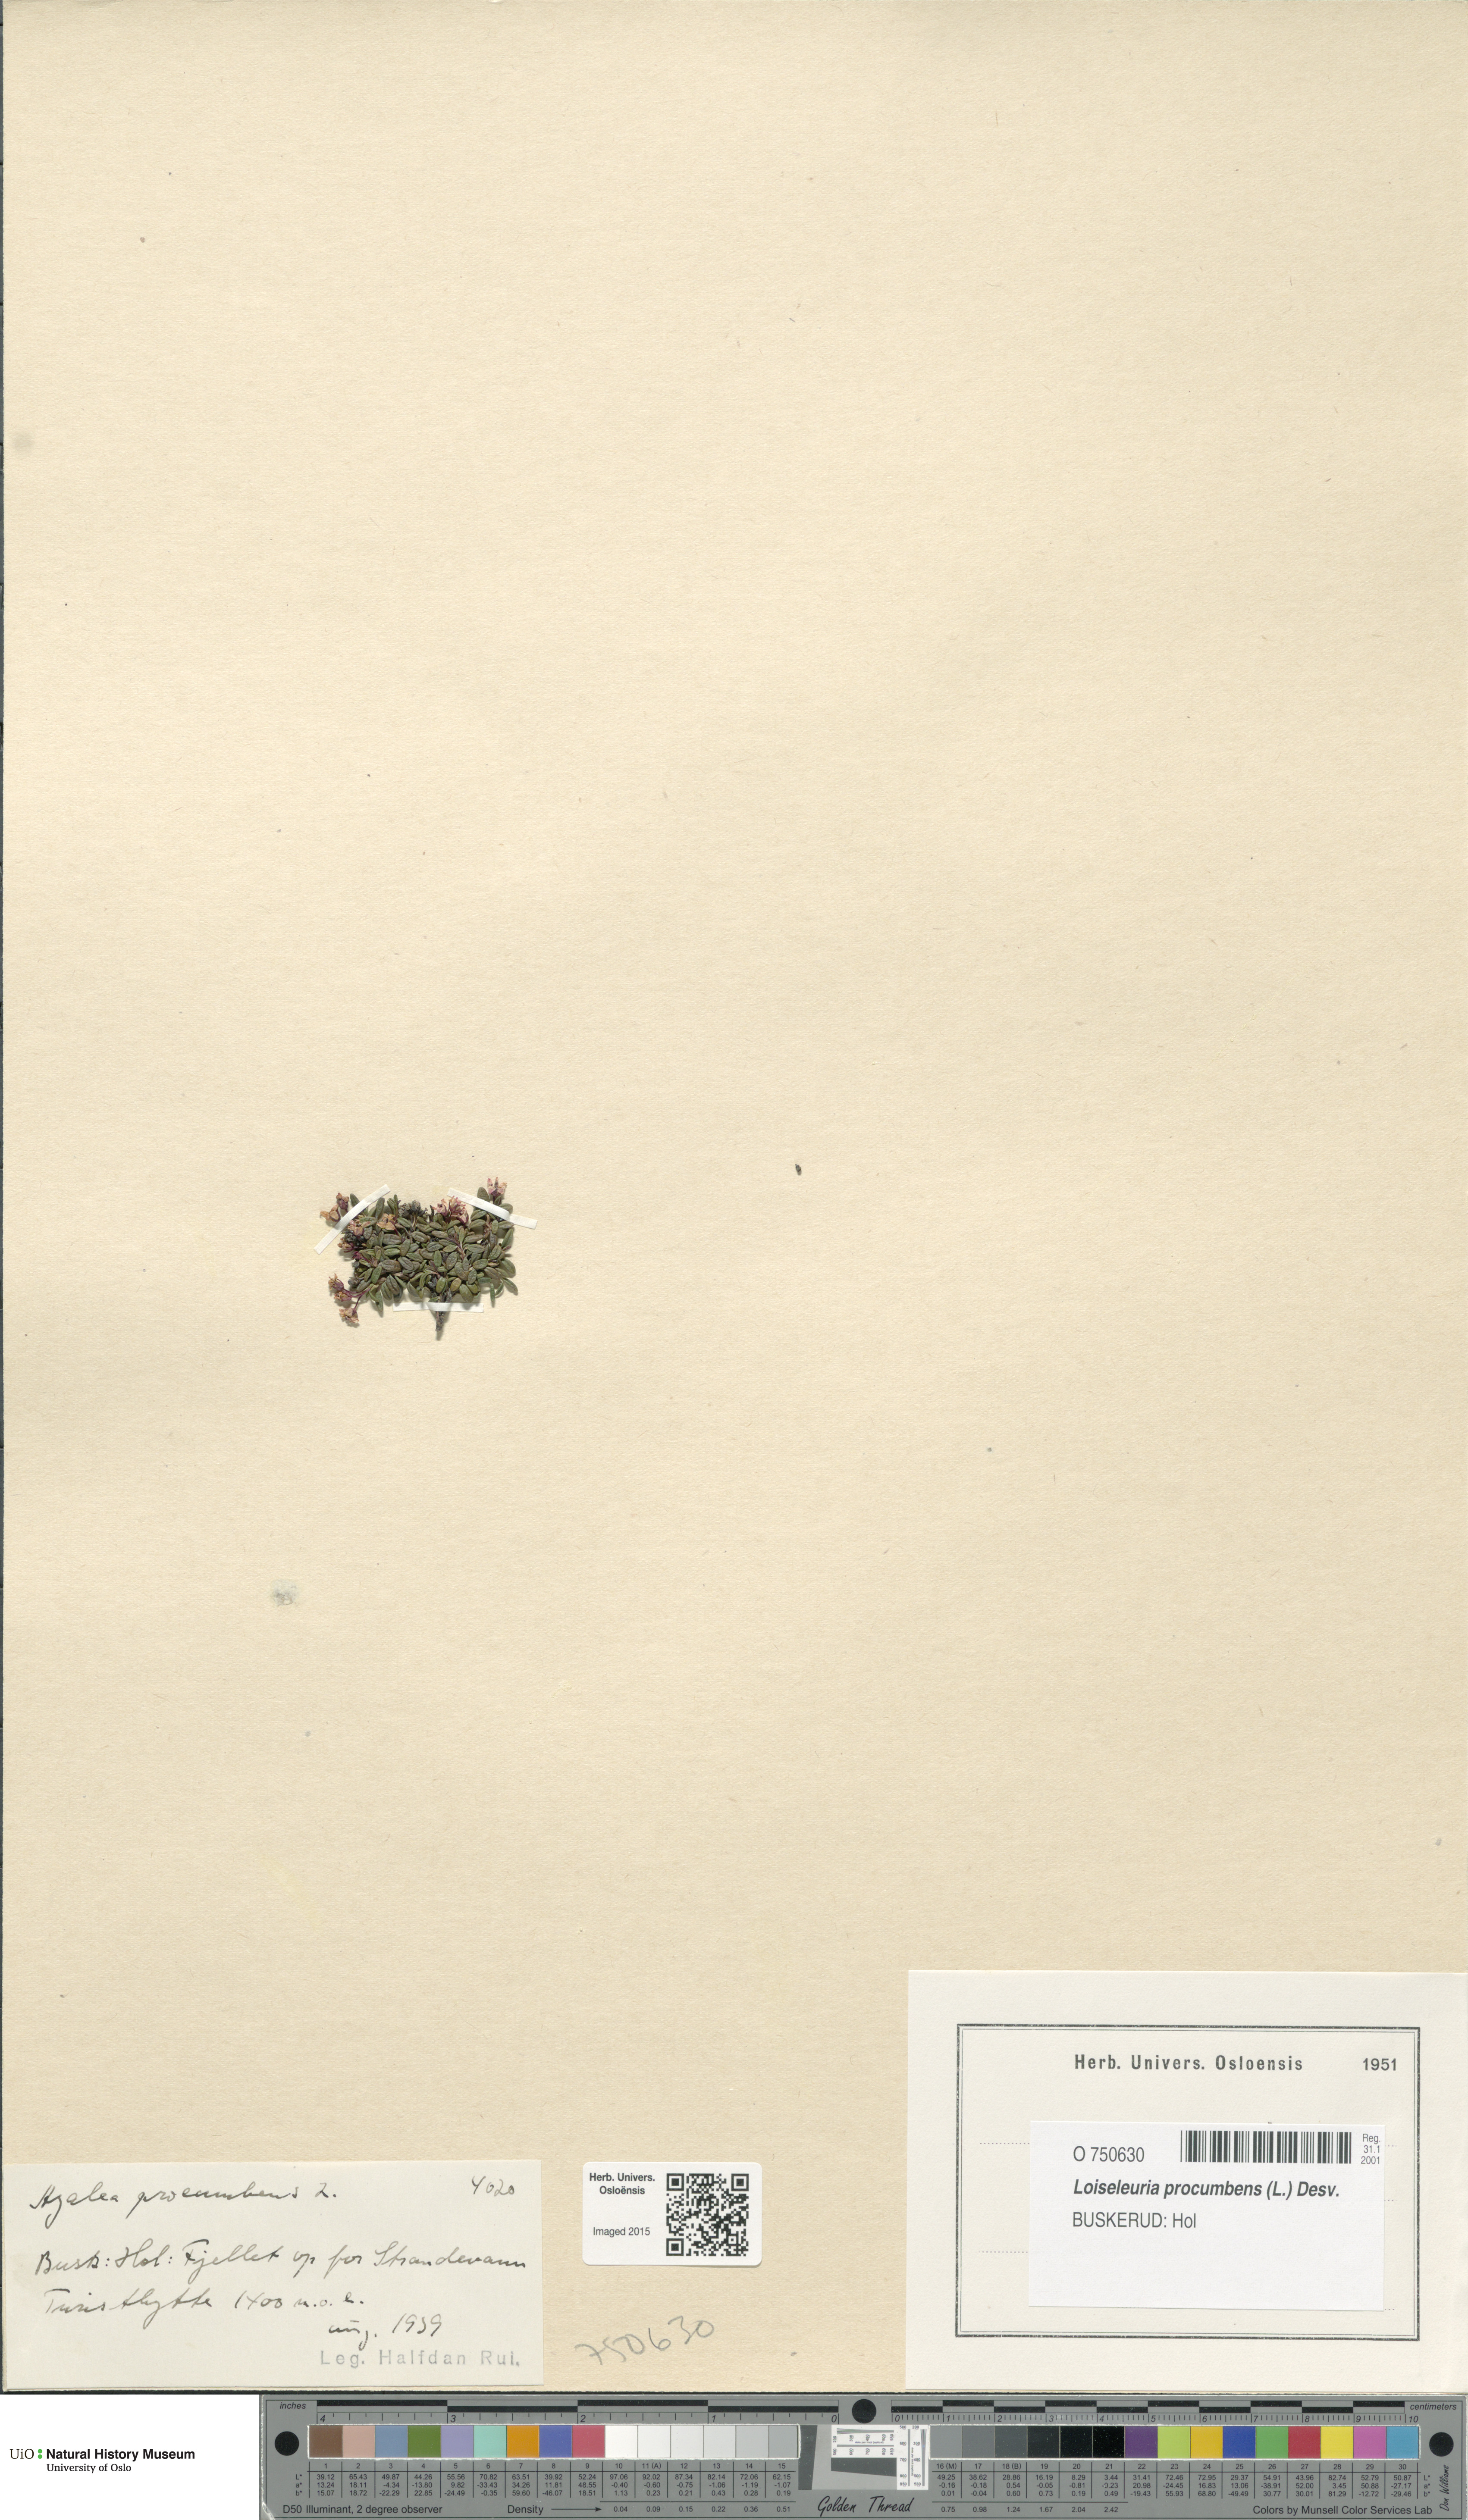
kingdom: Plantae
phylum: Tracheophyta
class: Magnoliopsida
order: Ericales
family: Ericaceae
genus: Kalmia
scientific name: Kalmia procumbens
